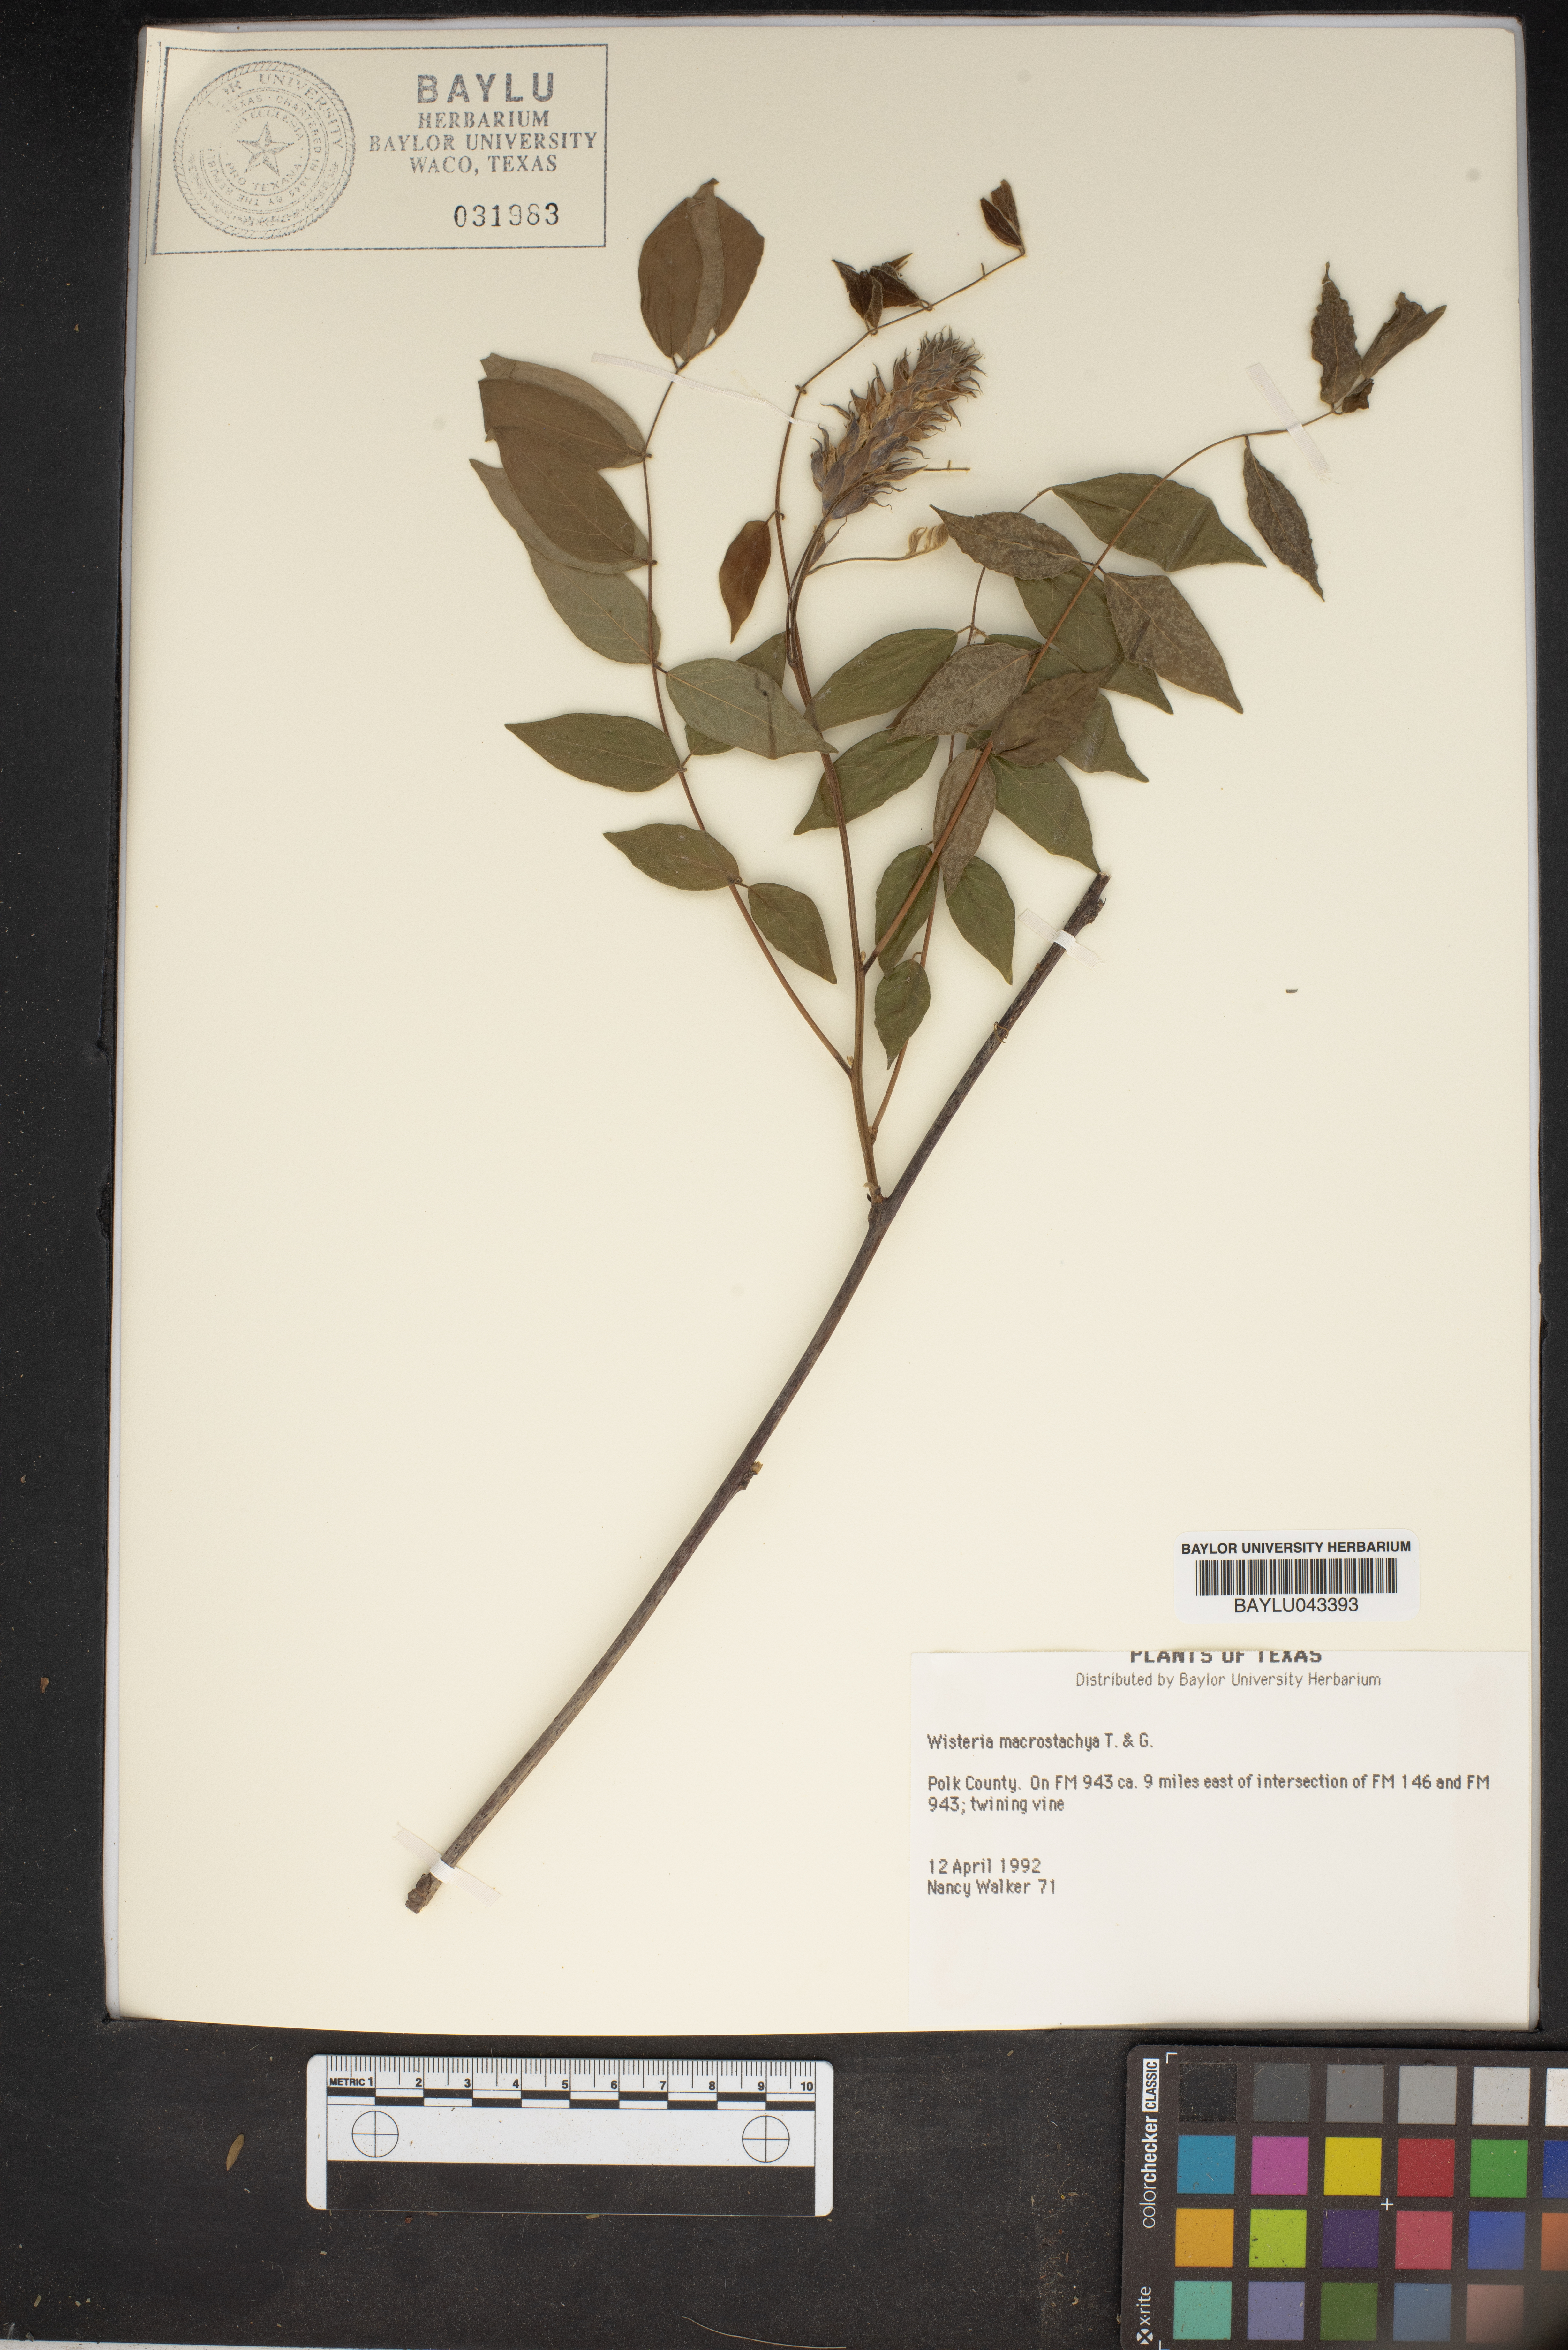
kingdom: Plantae
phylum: Tracheophyta
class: Magnoliopsida
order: Fabales
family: Fabaceae
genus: Wisteria
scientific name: Wisteria frutescens
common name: American wisteria
